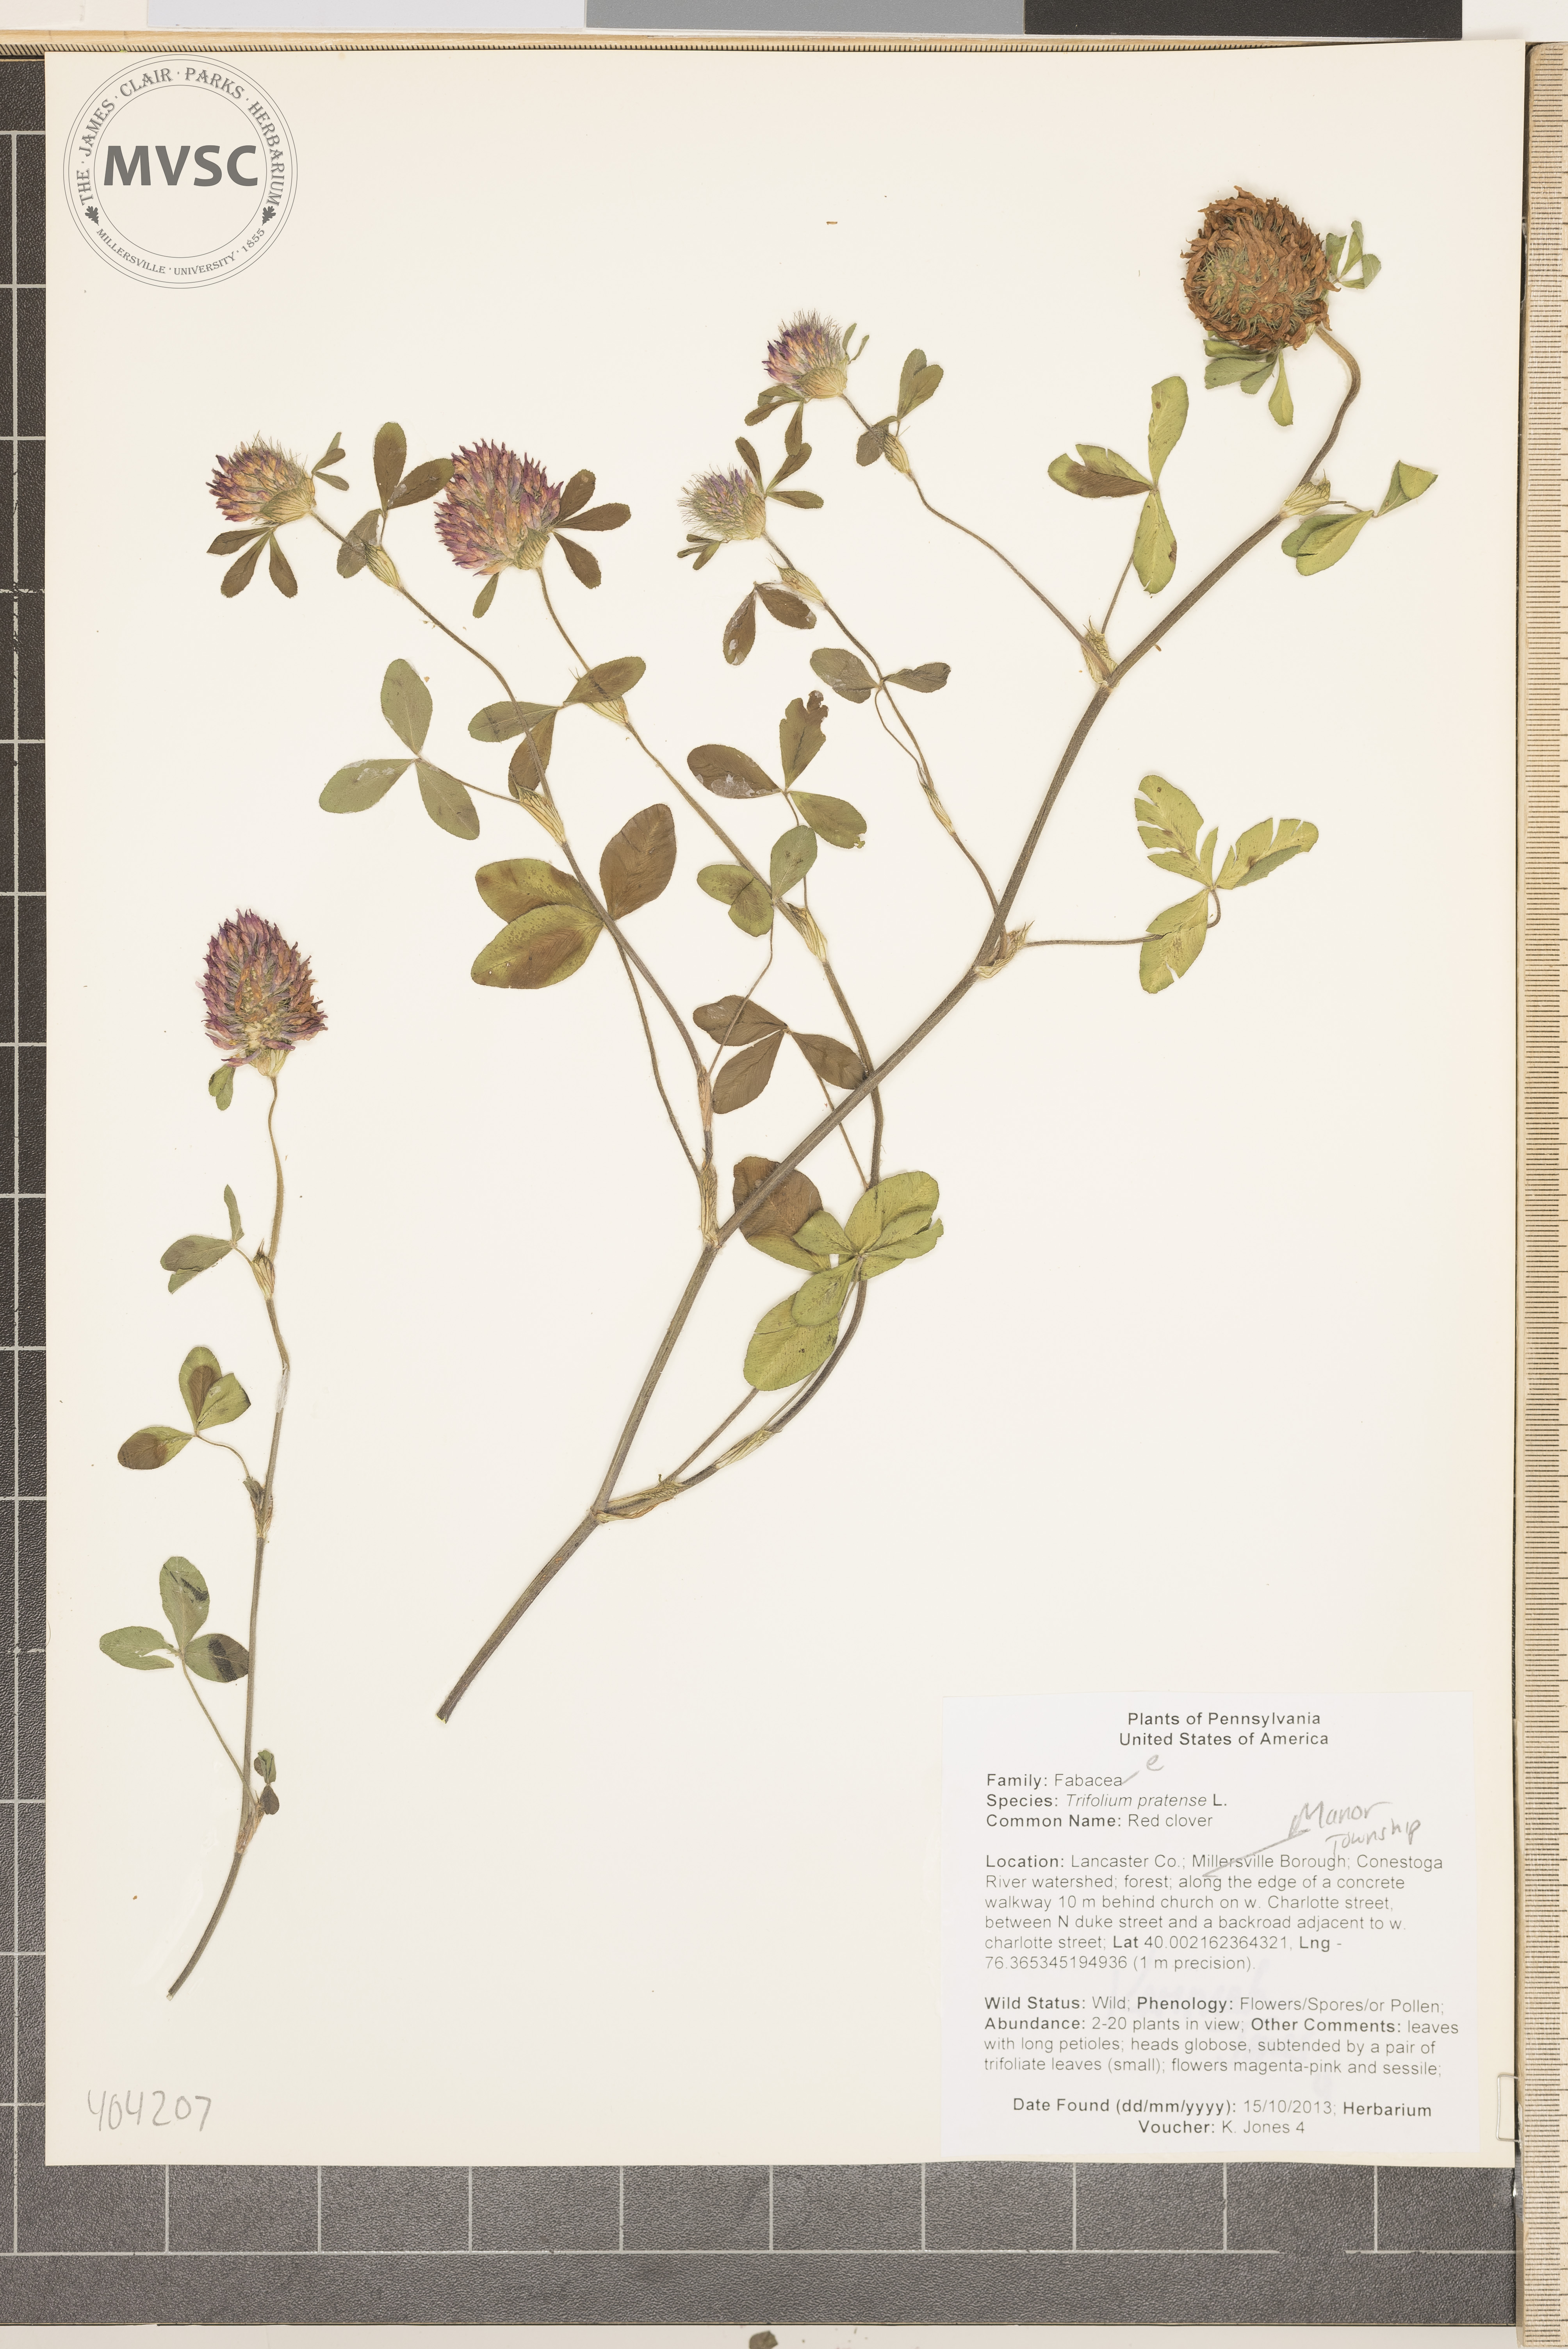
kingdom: Plantae
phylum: Tracheophyta
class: Magnoliopsida
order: Fabales
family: Fabaceae
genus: Trifolium
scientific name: Trifolium pratense
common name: Red clover
